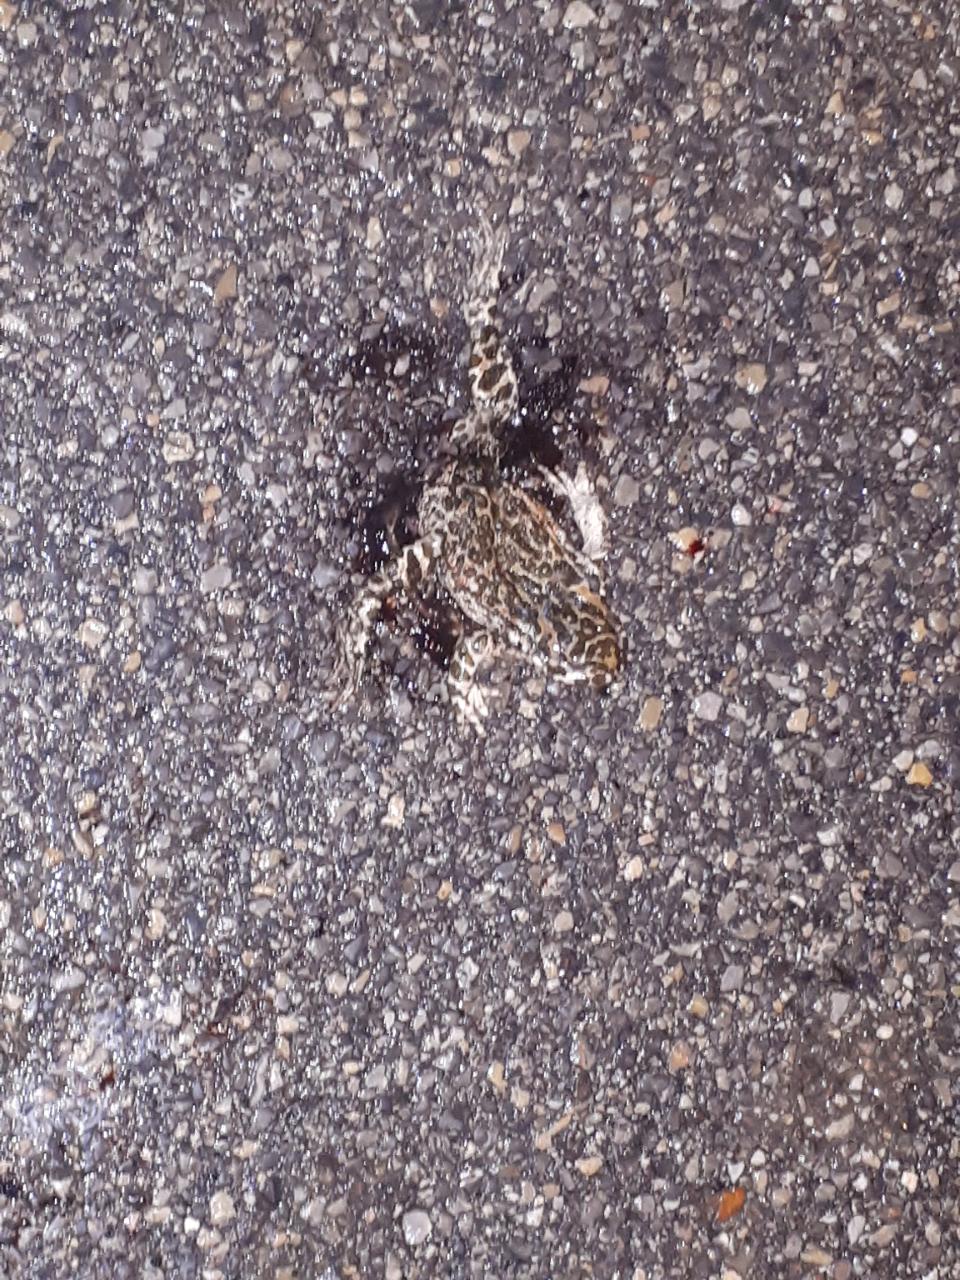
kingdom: Animalia
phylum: Chordata
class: Amphibia
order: Anura
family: Bufonidae
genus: Bufotes
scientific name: Bufotes viridis
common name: European green toad
